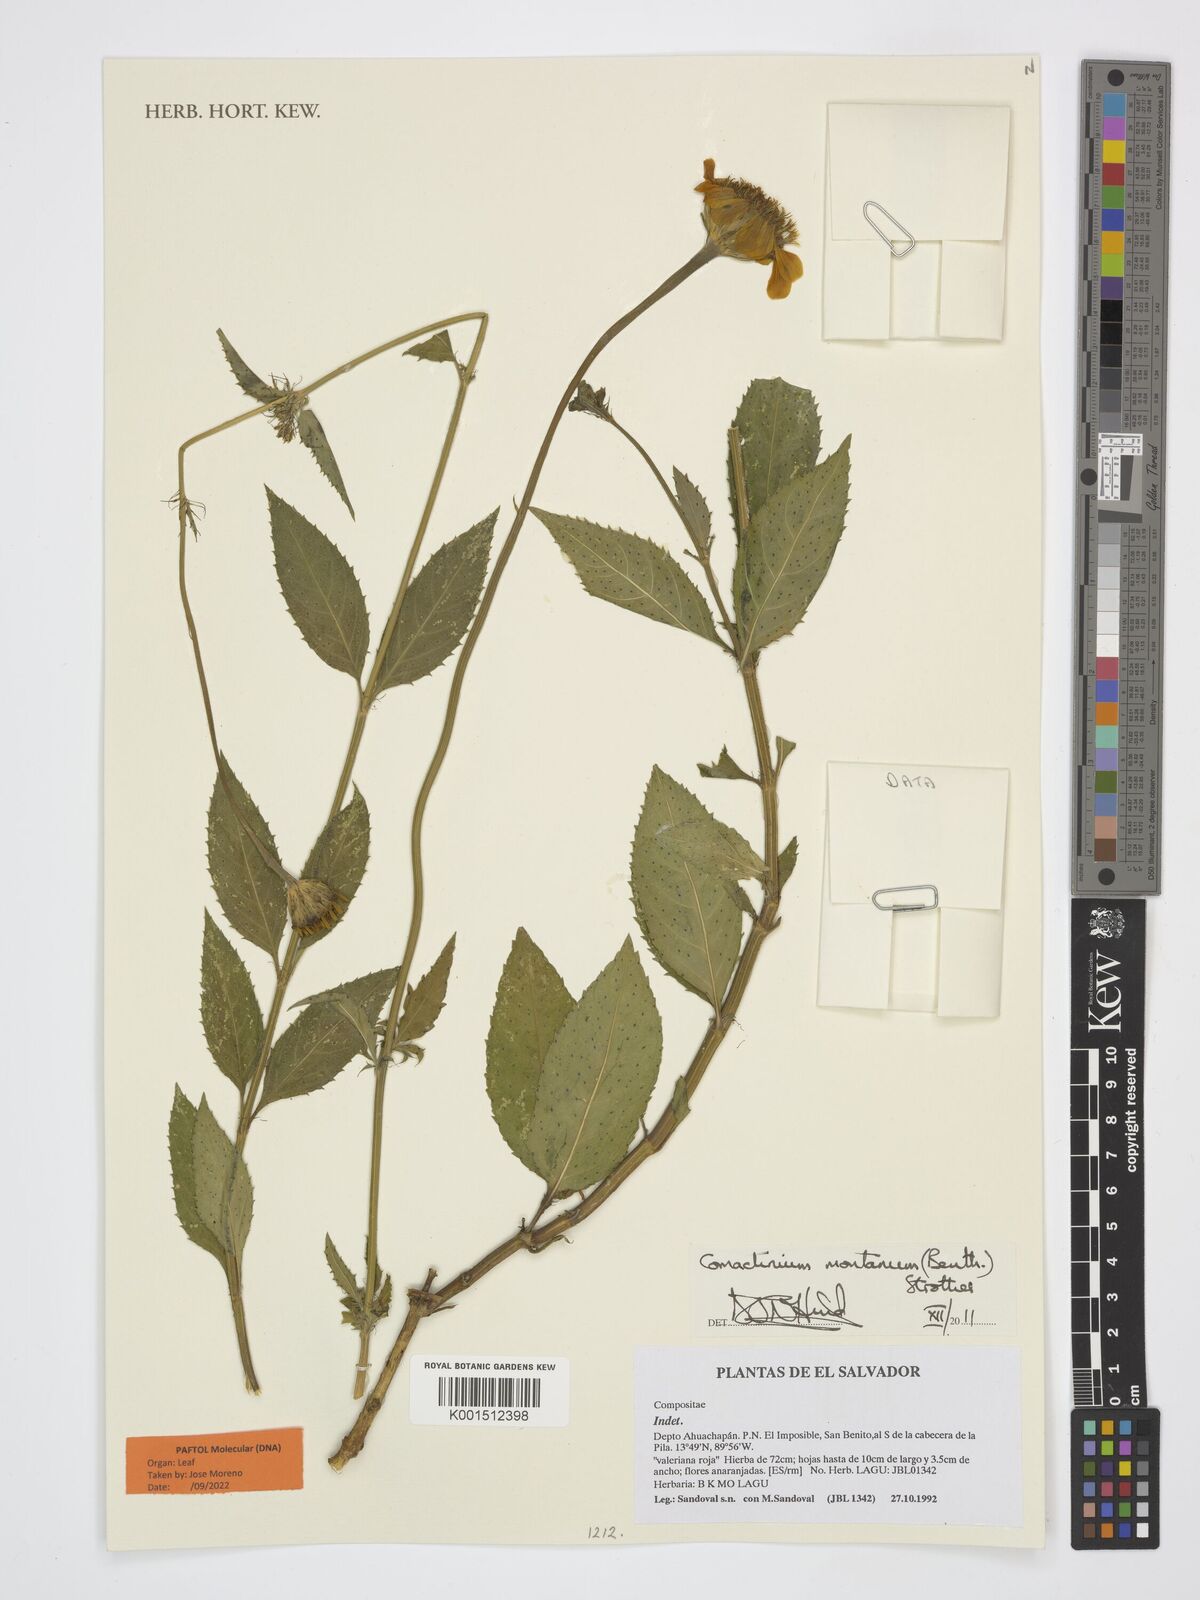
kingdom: Plantae
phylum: Tracheophyta
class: Magnoliopsida
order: Asterales
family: Asteraceae
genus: Comaclinium
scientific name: Comaclinium montanum
